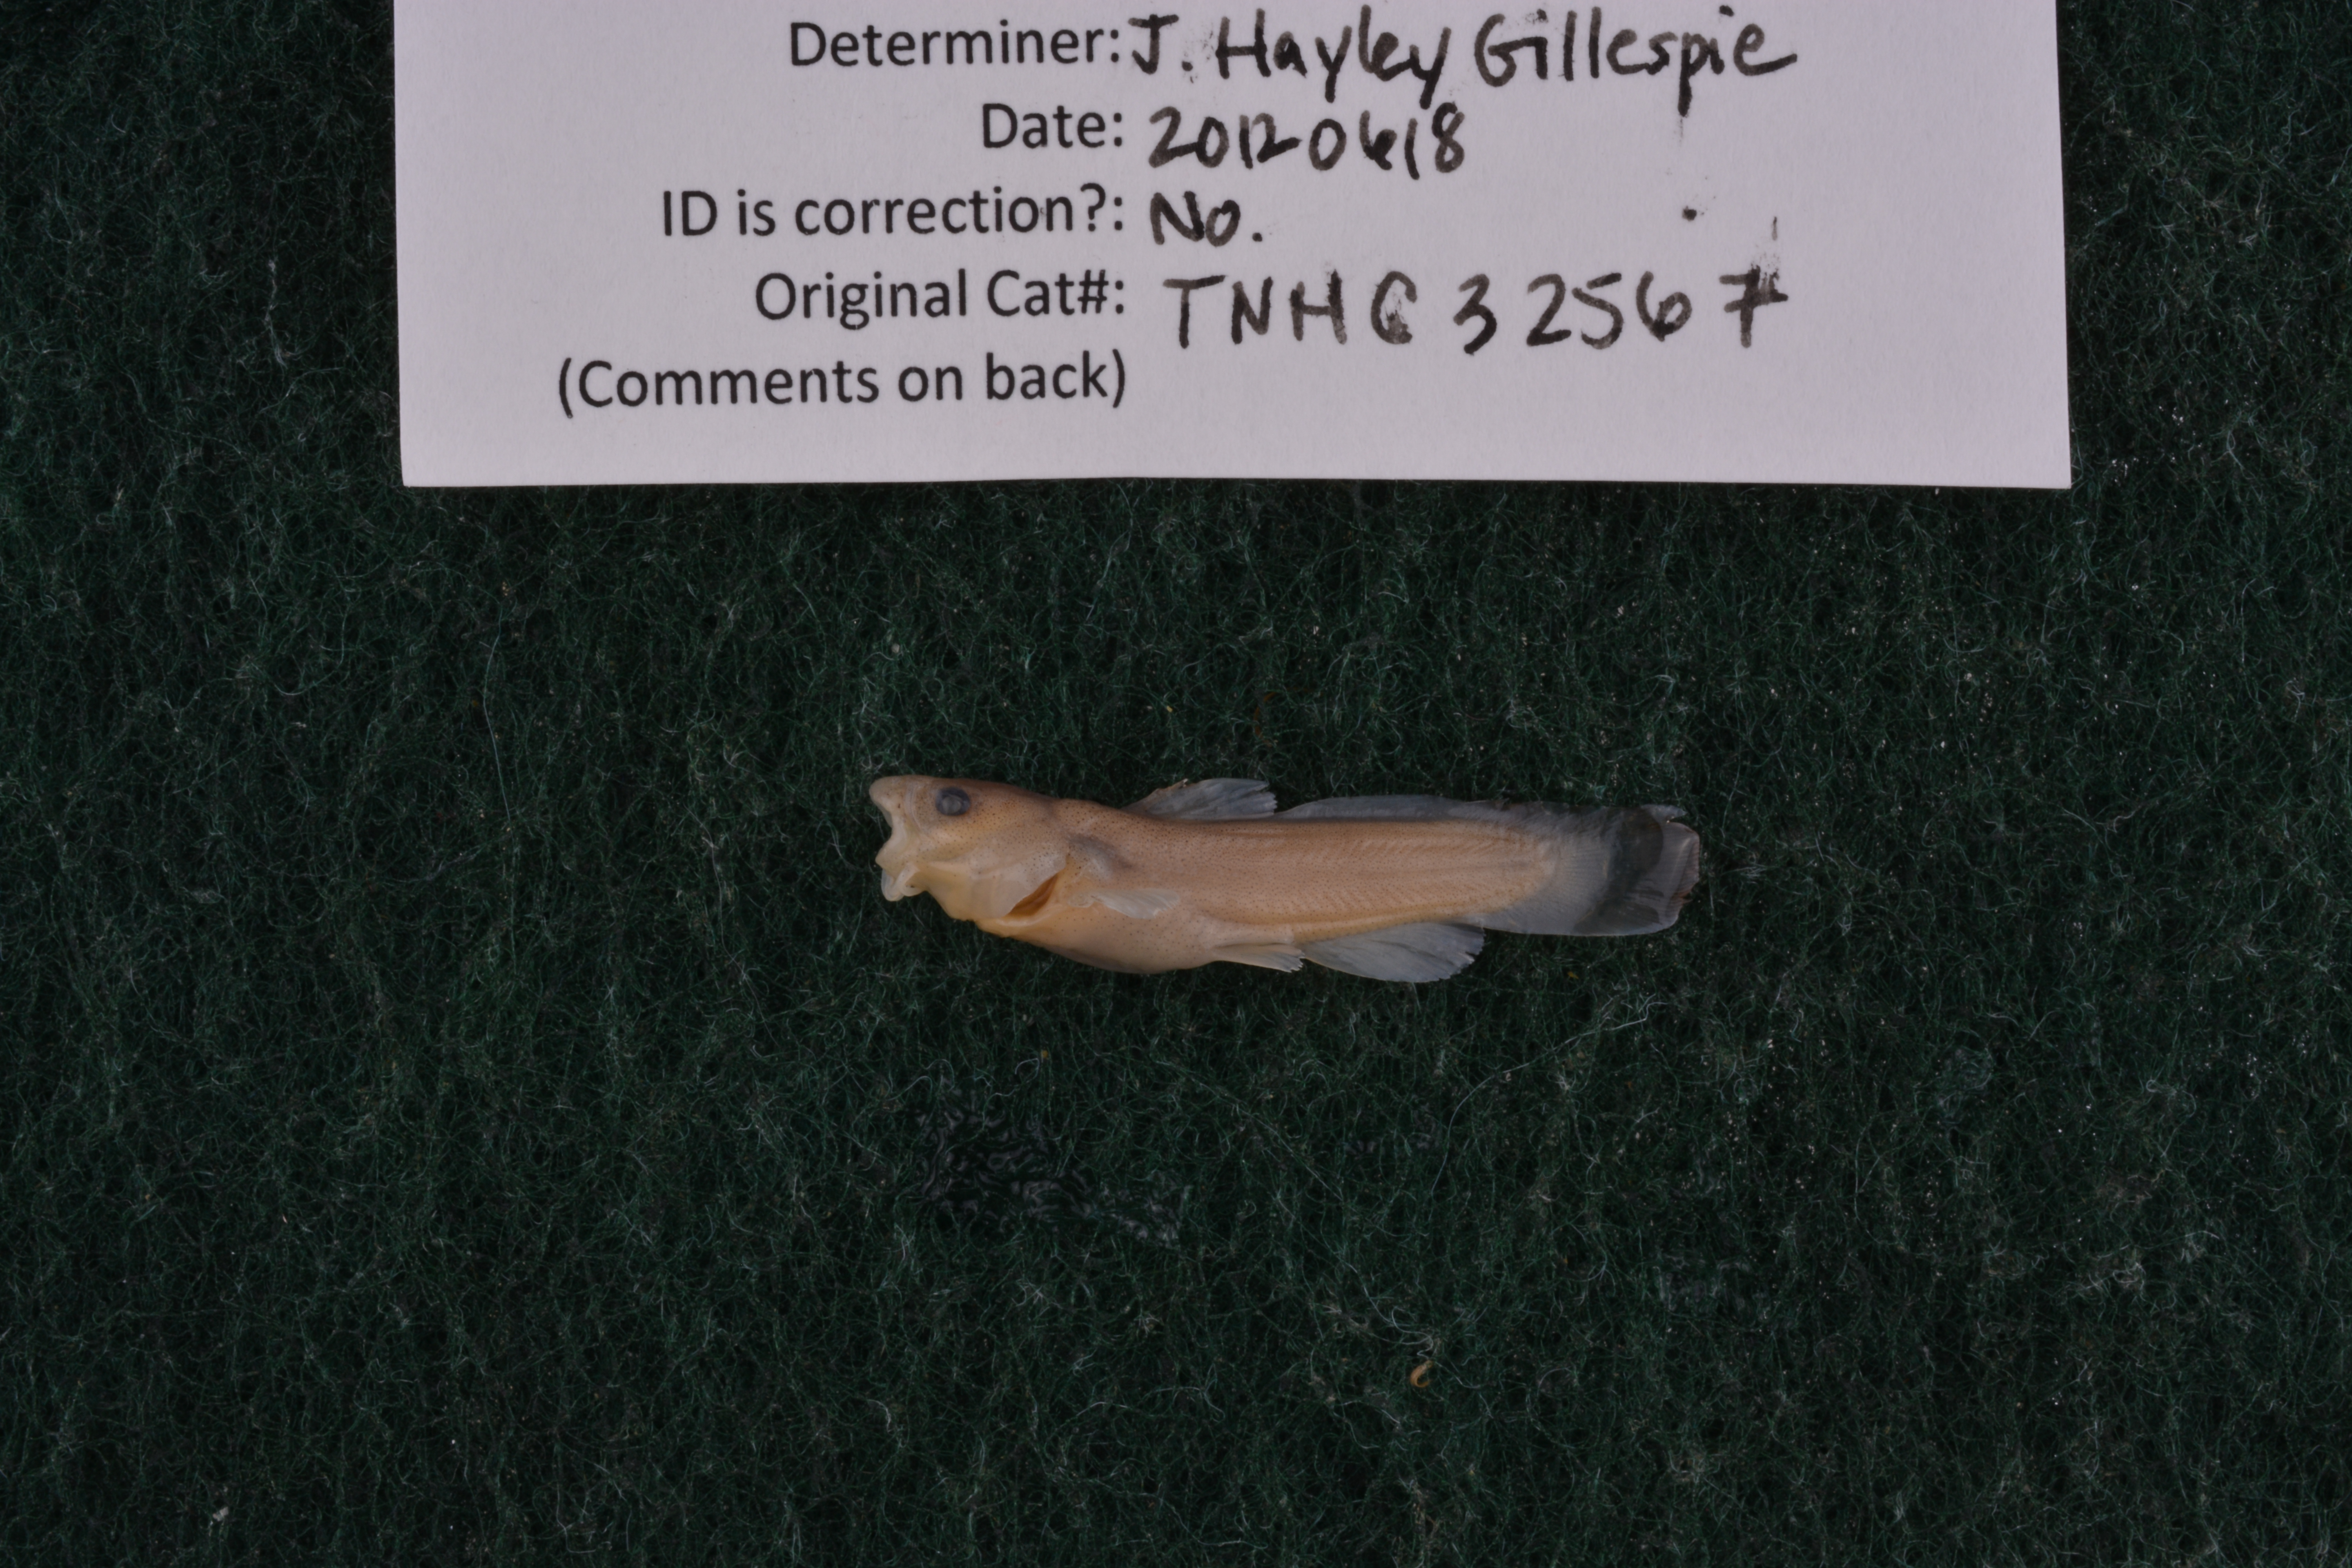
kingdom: Animalia
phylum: Chordata
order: Siluriformes
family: Ictaluridae
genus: Noturus
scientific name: Noturus nocturnus
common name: Freckled madtom
